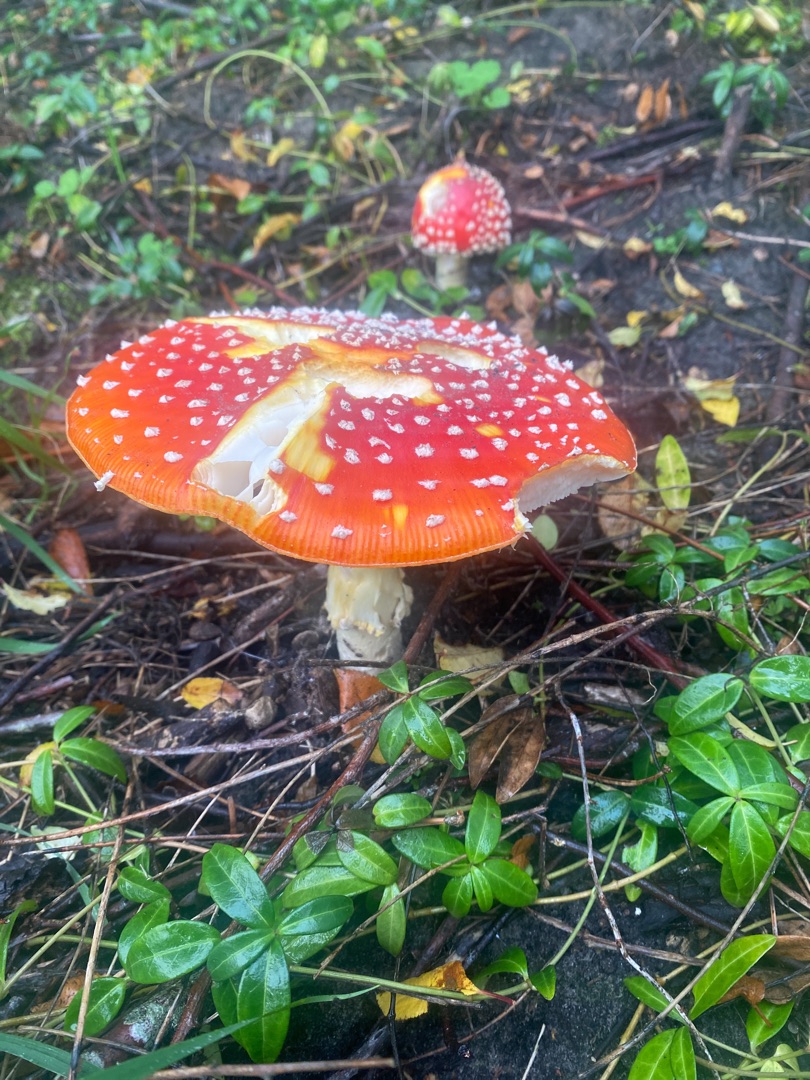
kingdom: Fungi
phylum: Basidiomycota
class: Agaricomycetes
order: Agaricales
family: Amanitaceae
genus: Amanita
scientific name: Amanita muscaria
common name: Rød fluesvamp
